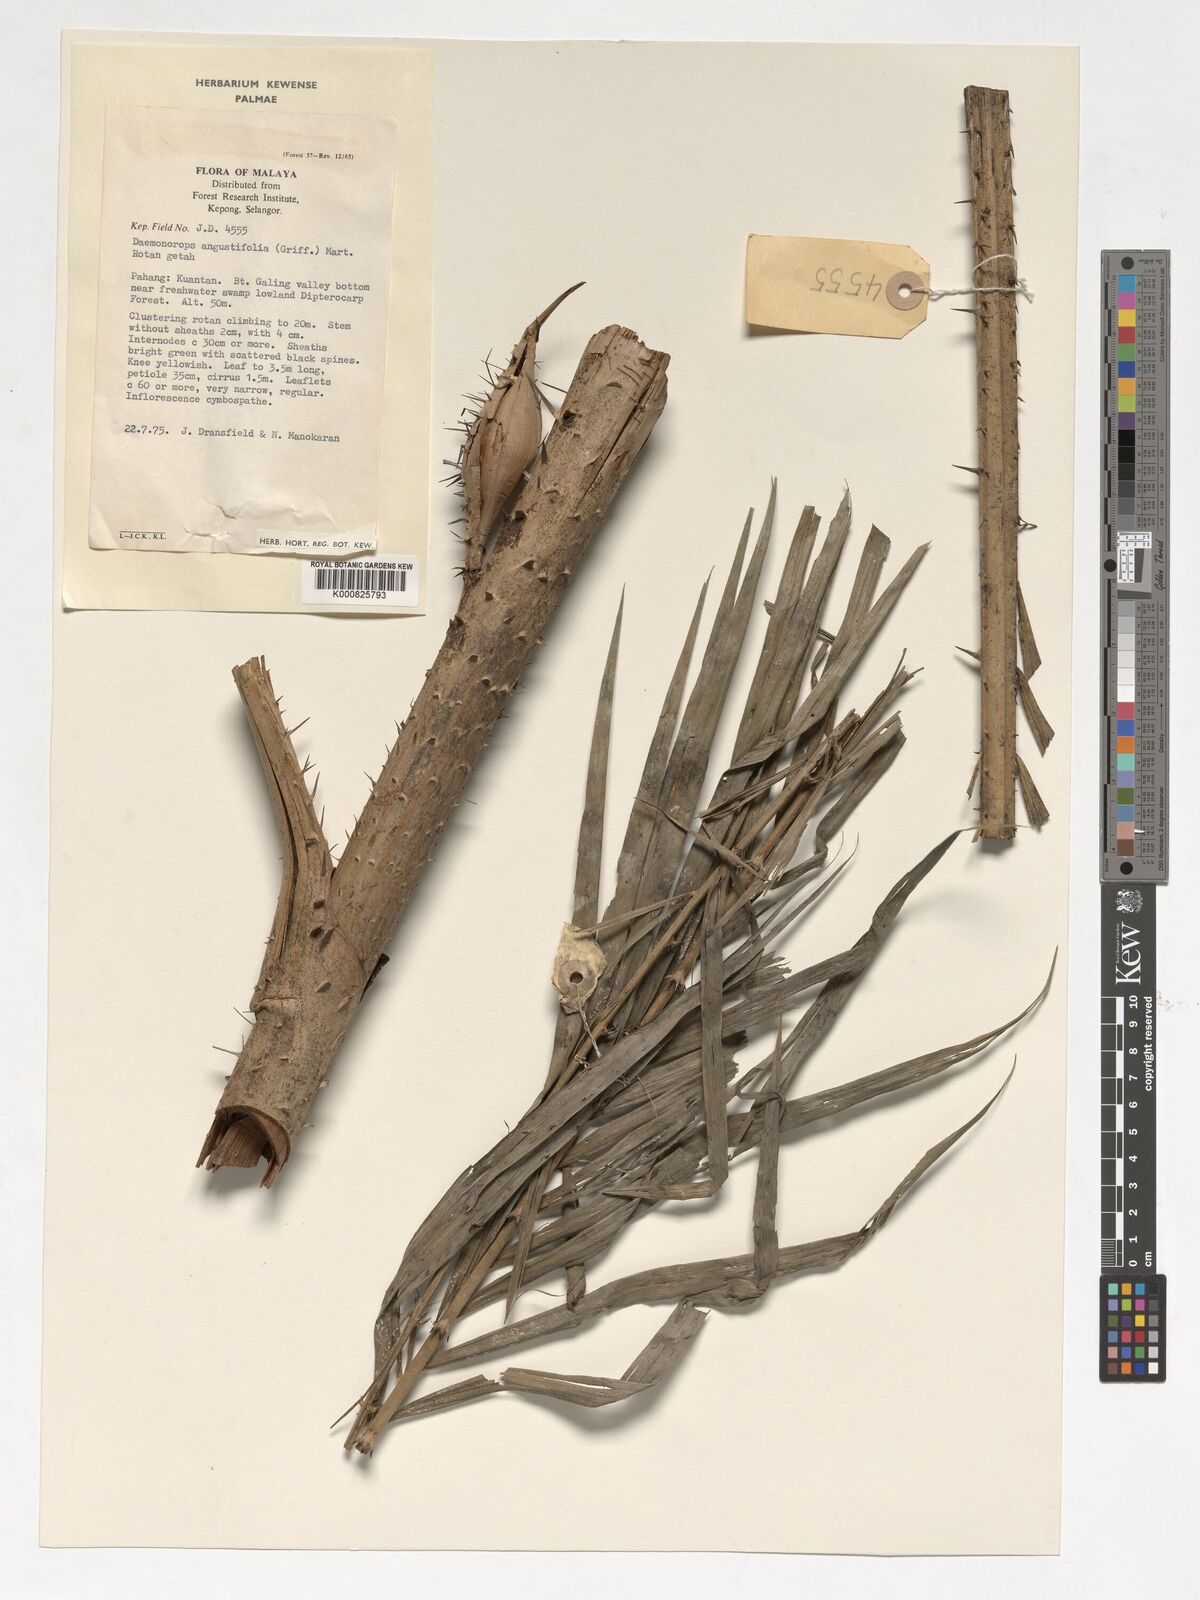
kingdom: Plantae
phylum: Tracheophyta
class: Liliopsida
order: Arecales
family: Arecaceae
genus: Calamus
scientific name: Calamus melanochaetes
